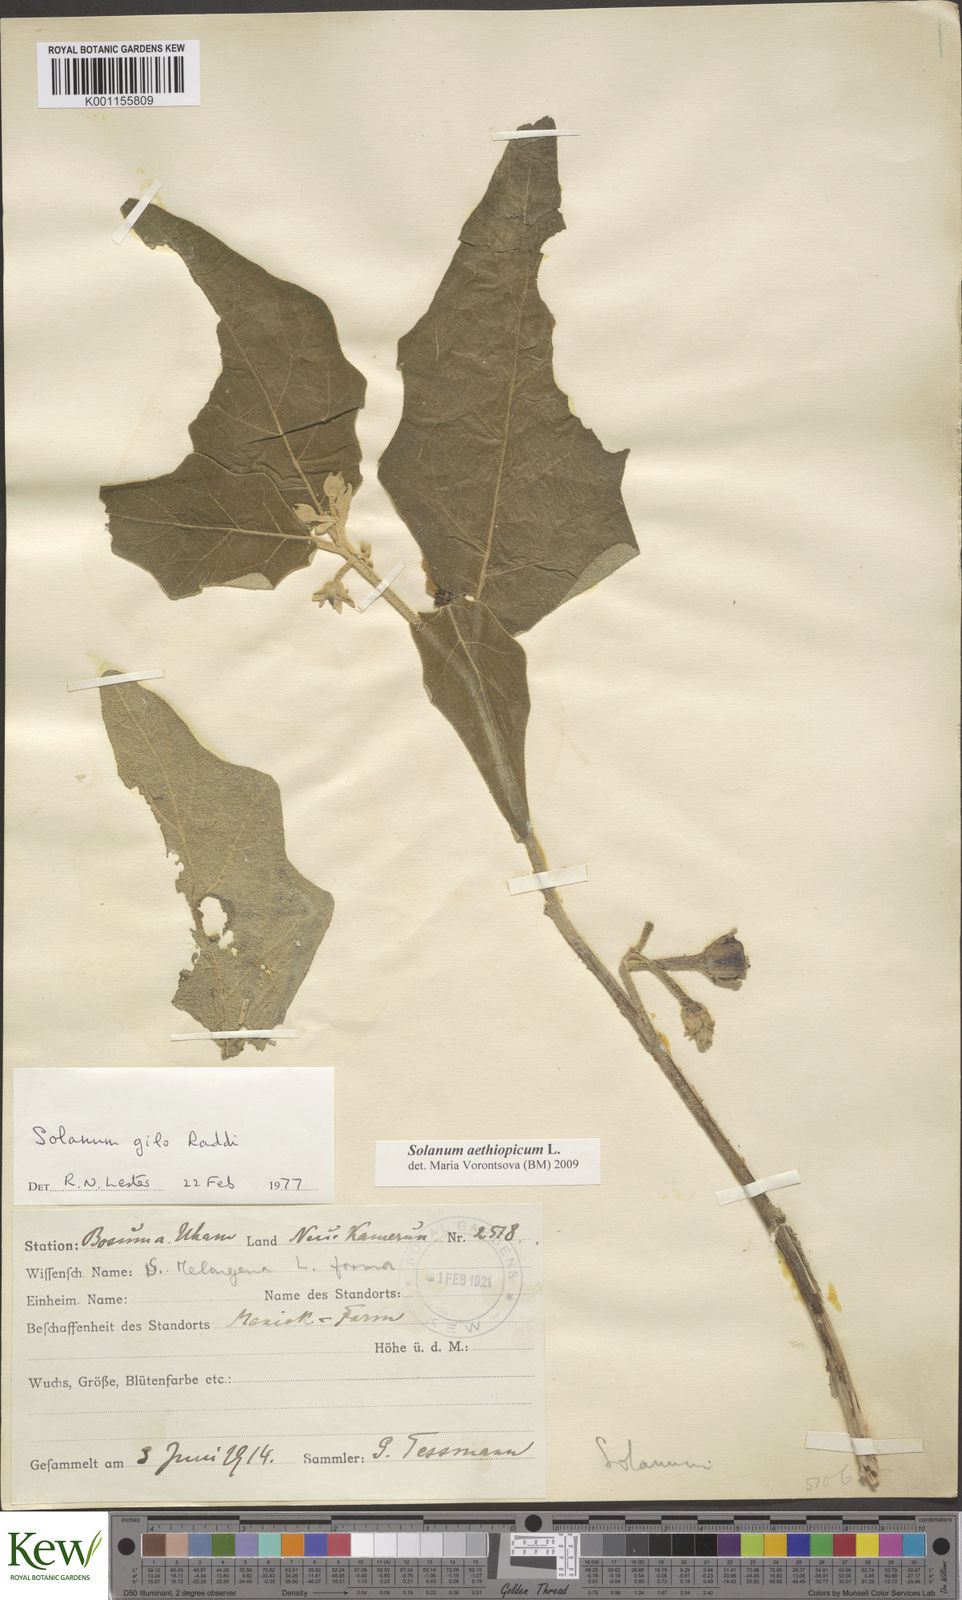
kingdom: Plantae
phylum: Tracheophyta
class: Magnoliopsida
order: Solanales
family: Solanaceae
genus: Solanum
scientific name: Solanum aethiopicum
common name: Gilo
